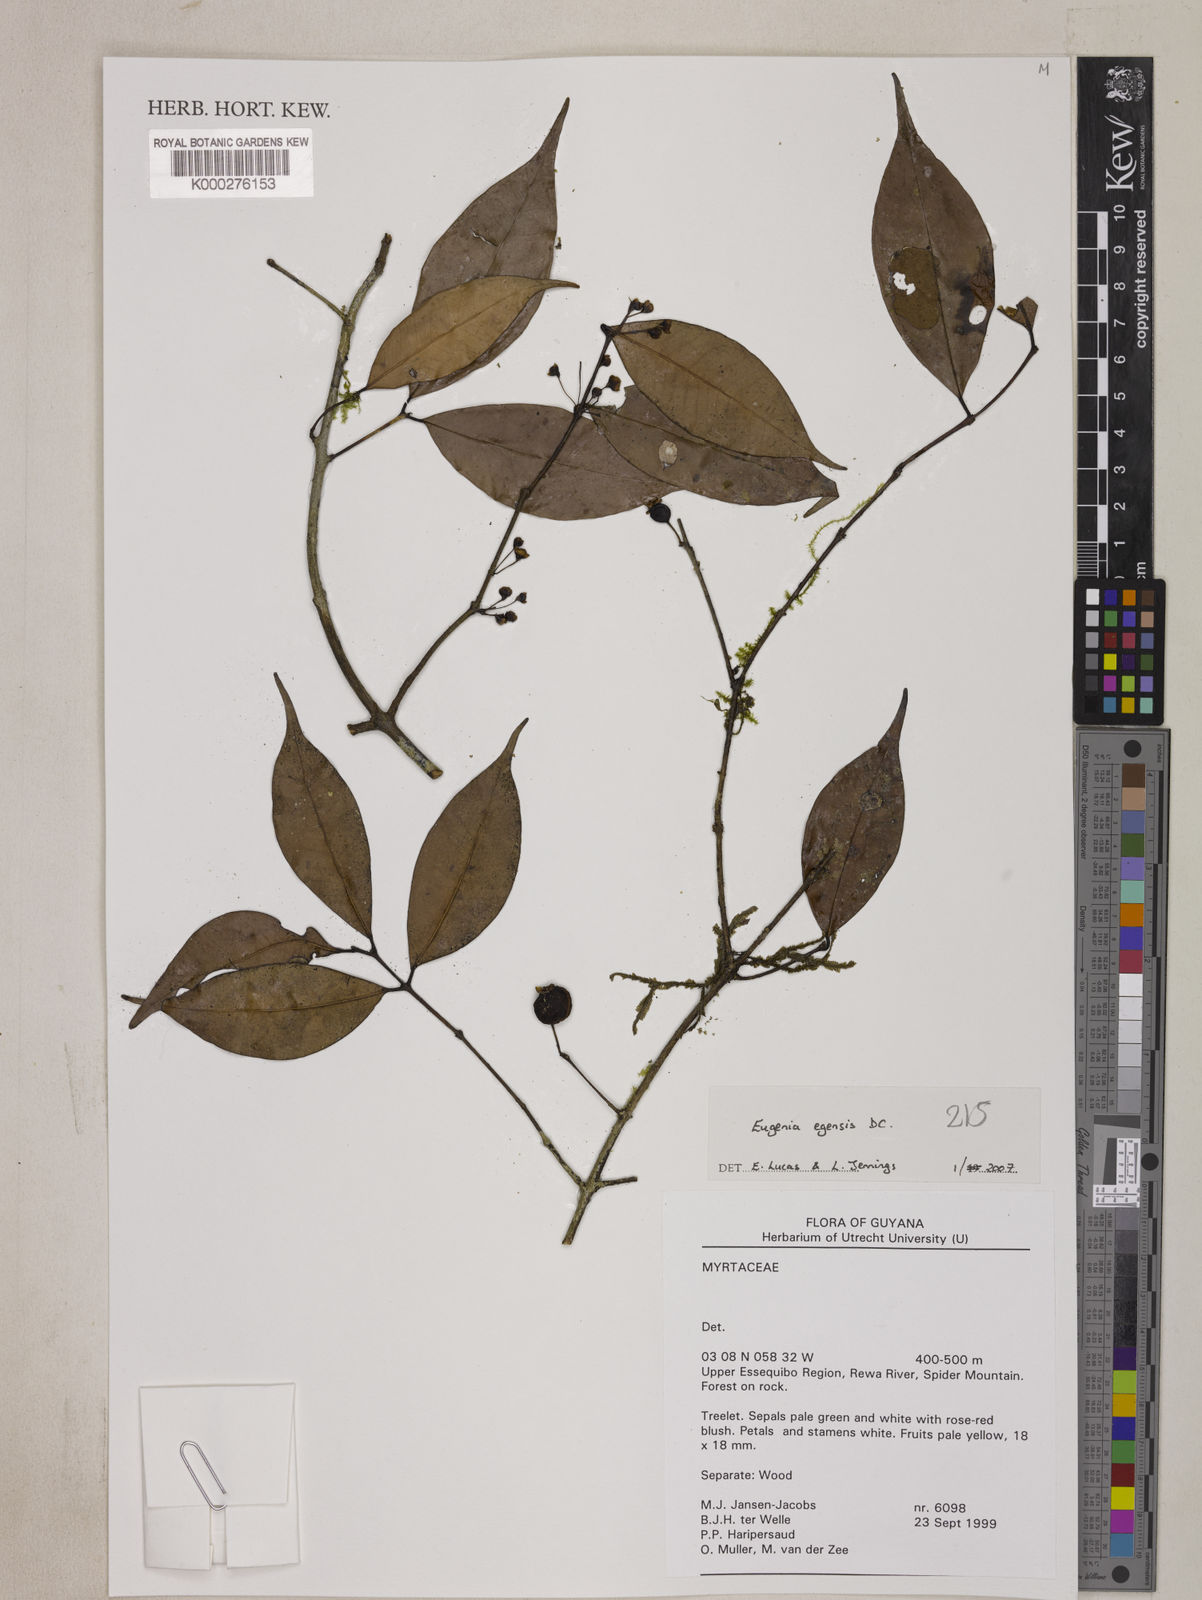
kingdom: Plantae
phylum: Tracheophyta
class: Magnoliopsida
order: Myrtales
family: Myrtaceae
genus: Eugenia
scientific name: Eugenia egensis
